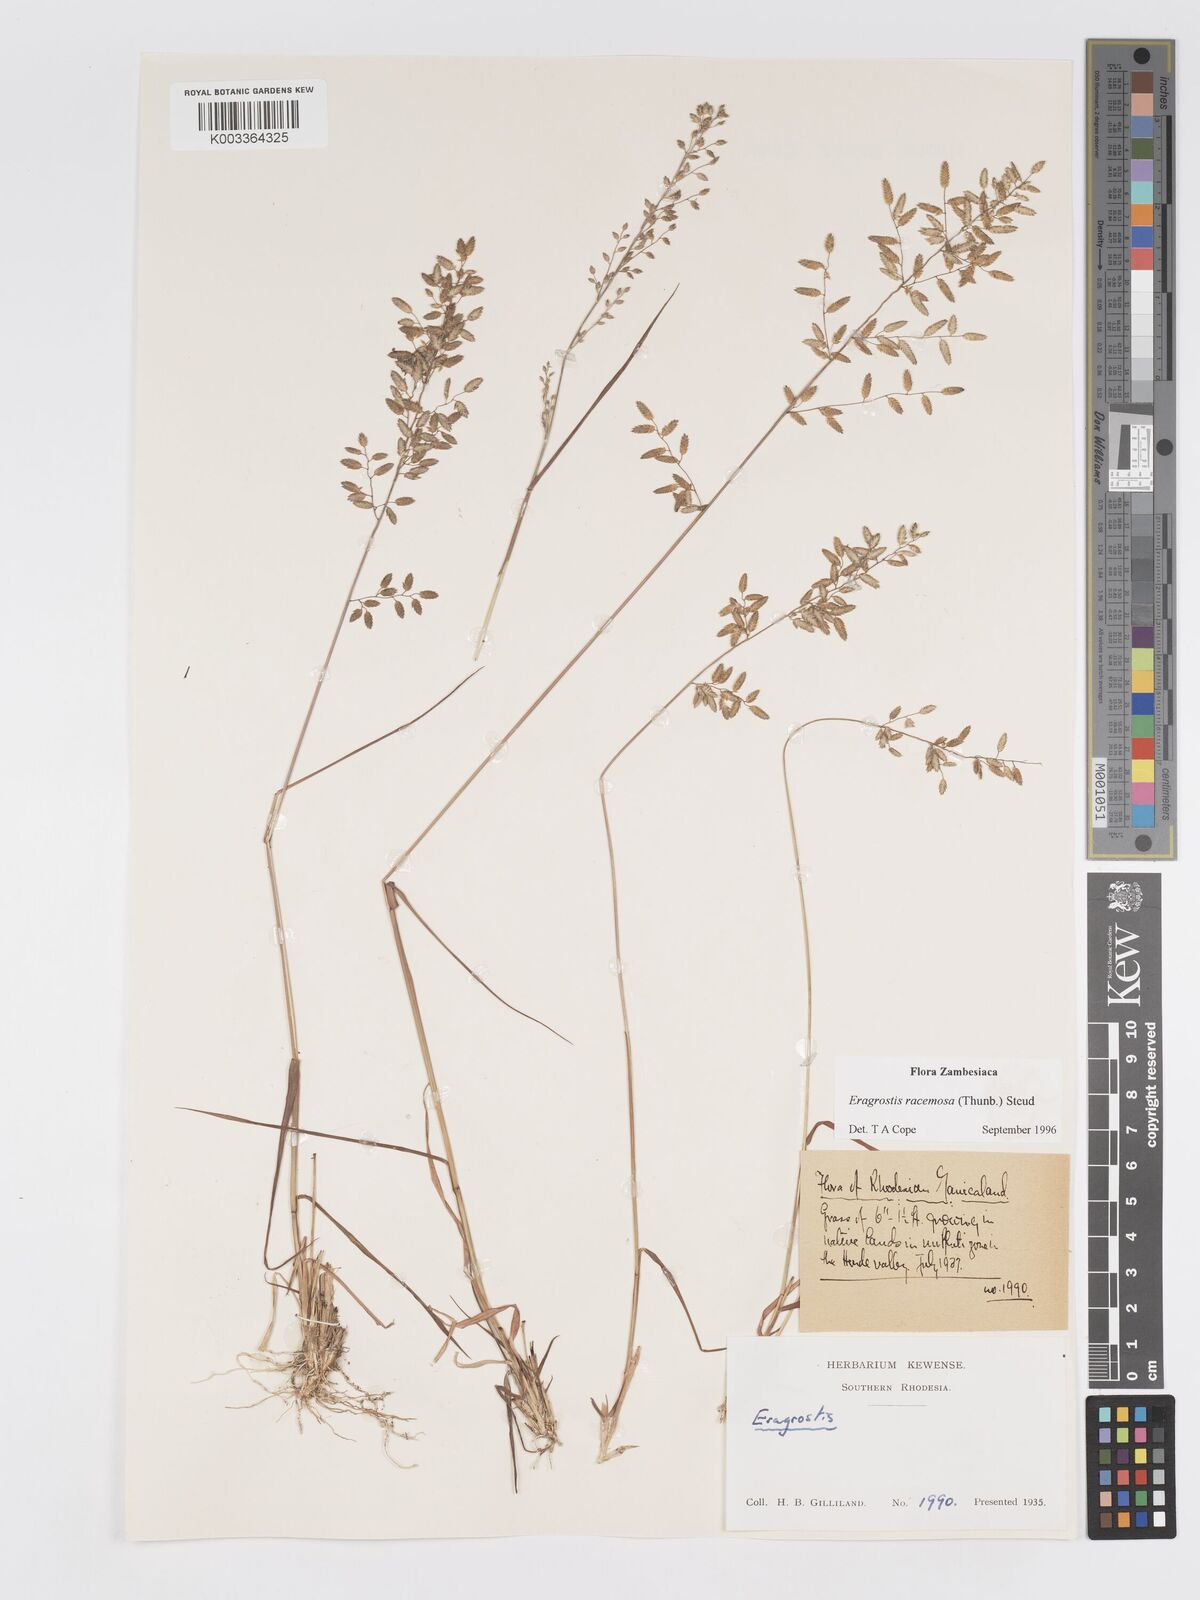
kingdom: Plantae
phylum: Tracheophyta
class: Liliopsida
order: Poales
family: Poaceae
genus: Eragrostis
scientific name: Eragrostis racemosa
